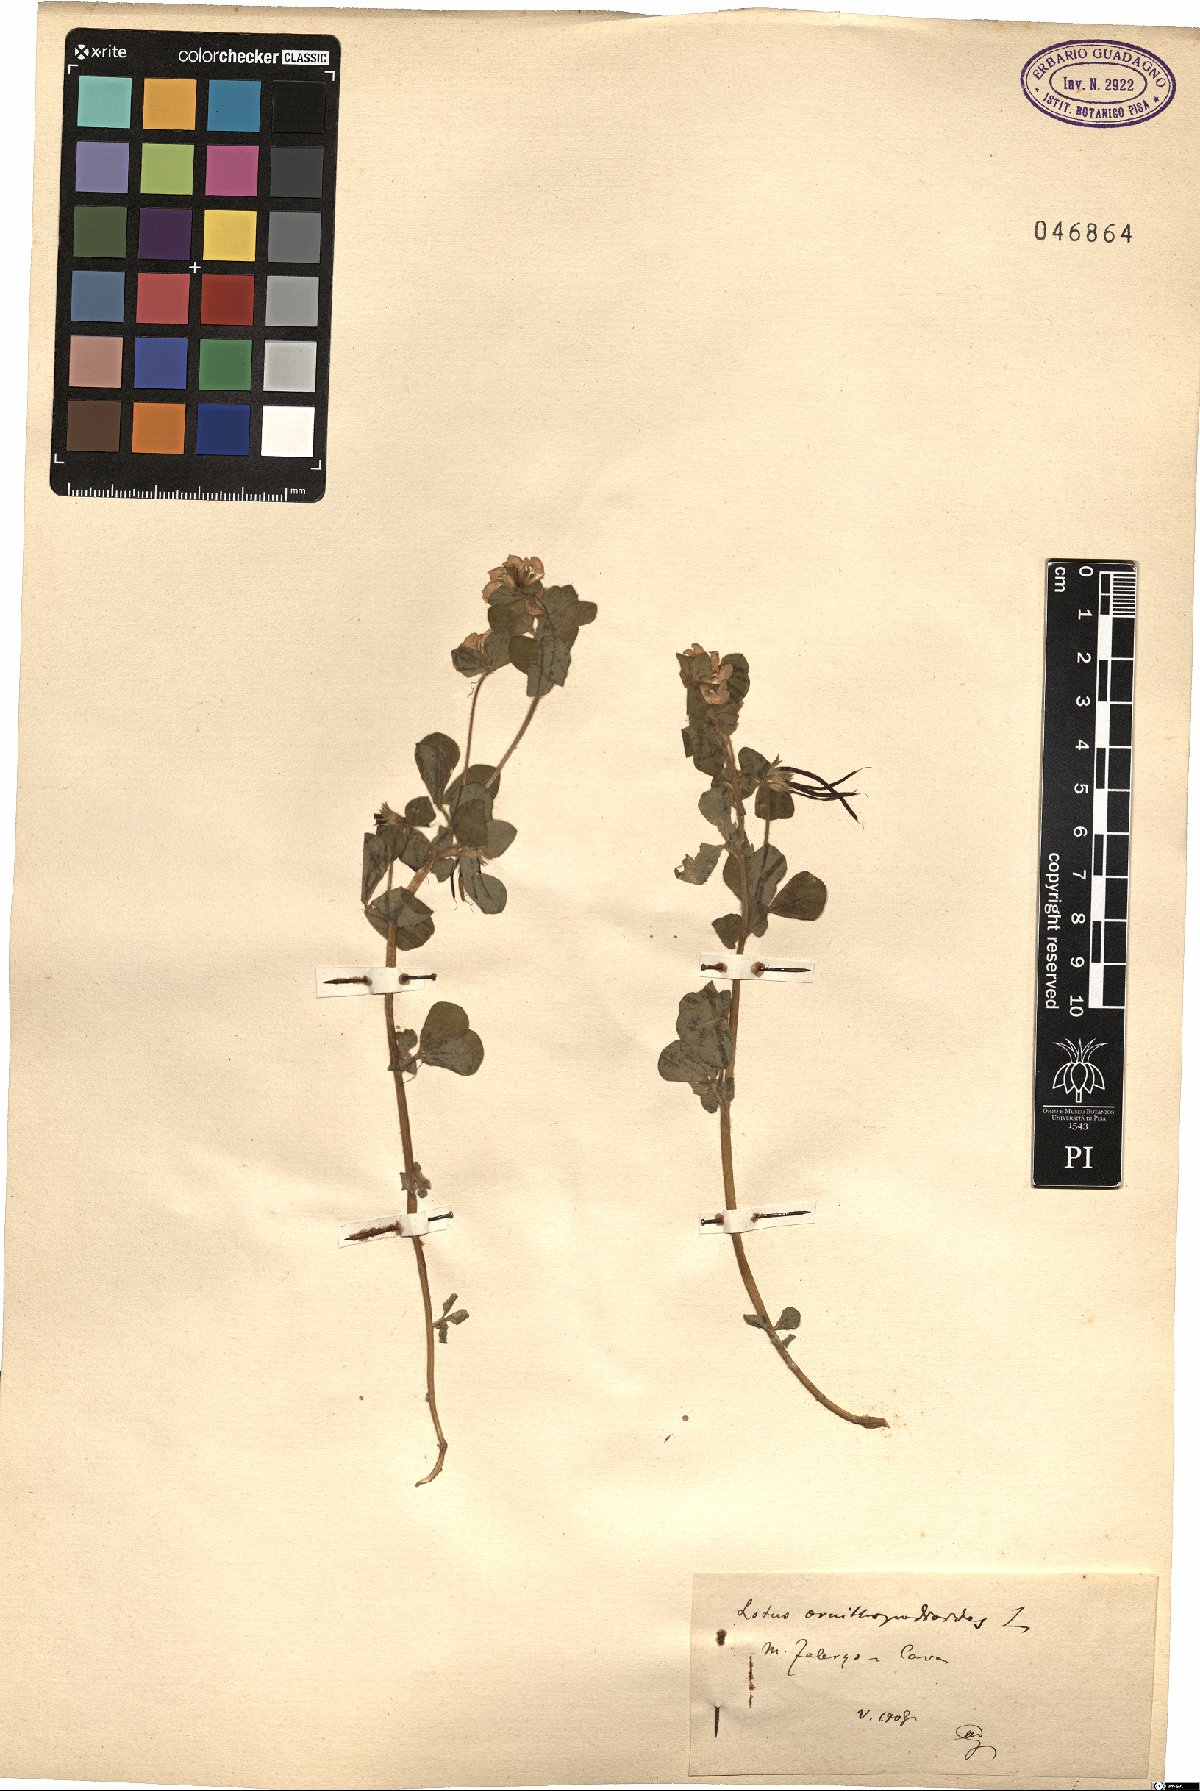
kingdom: Plantae
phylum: Tracheophyta
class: Magnoliopsida
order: Fabales
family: Fabaceae
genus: Lotus
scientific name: Lotus ornithopodioides
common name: Southern bird's-foot trefoil
